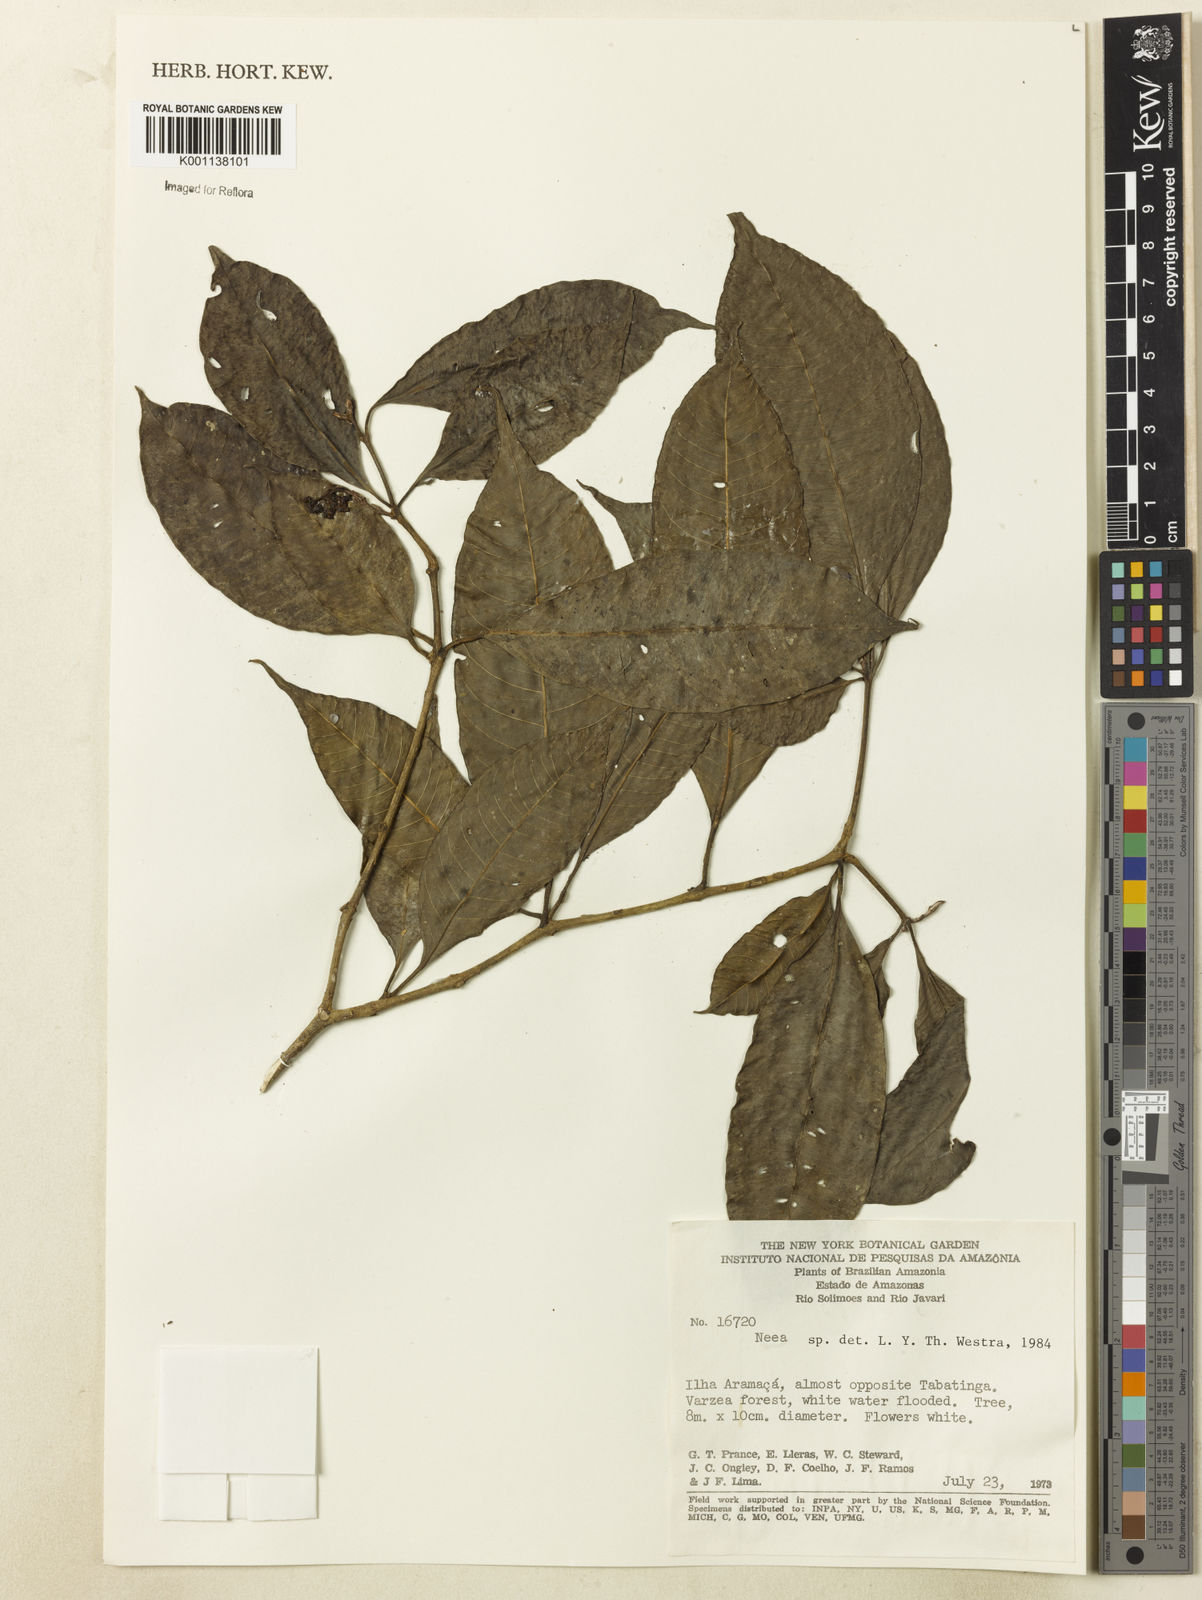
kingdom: Plantae
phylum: Tracheophyta
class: Magnoliopsida
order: Caryophyllales
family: Nyctaginaceae
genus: Neea
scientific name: Neea
